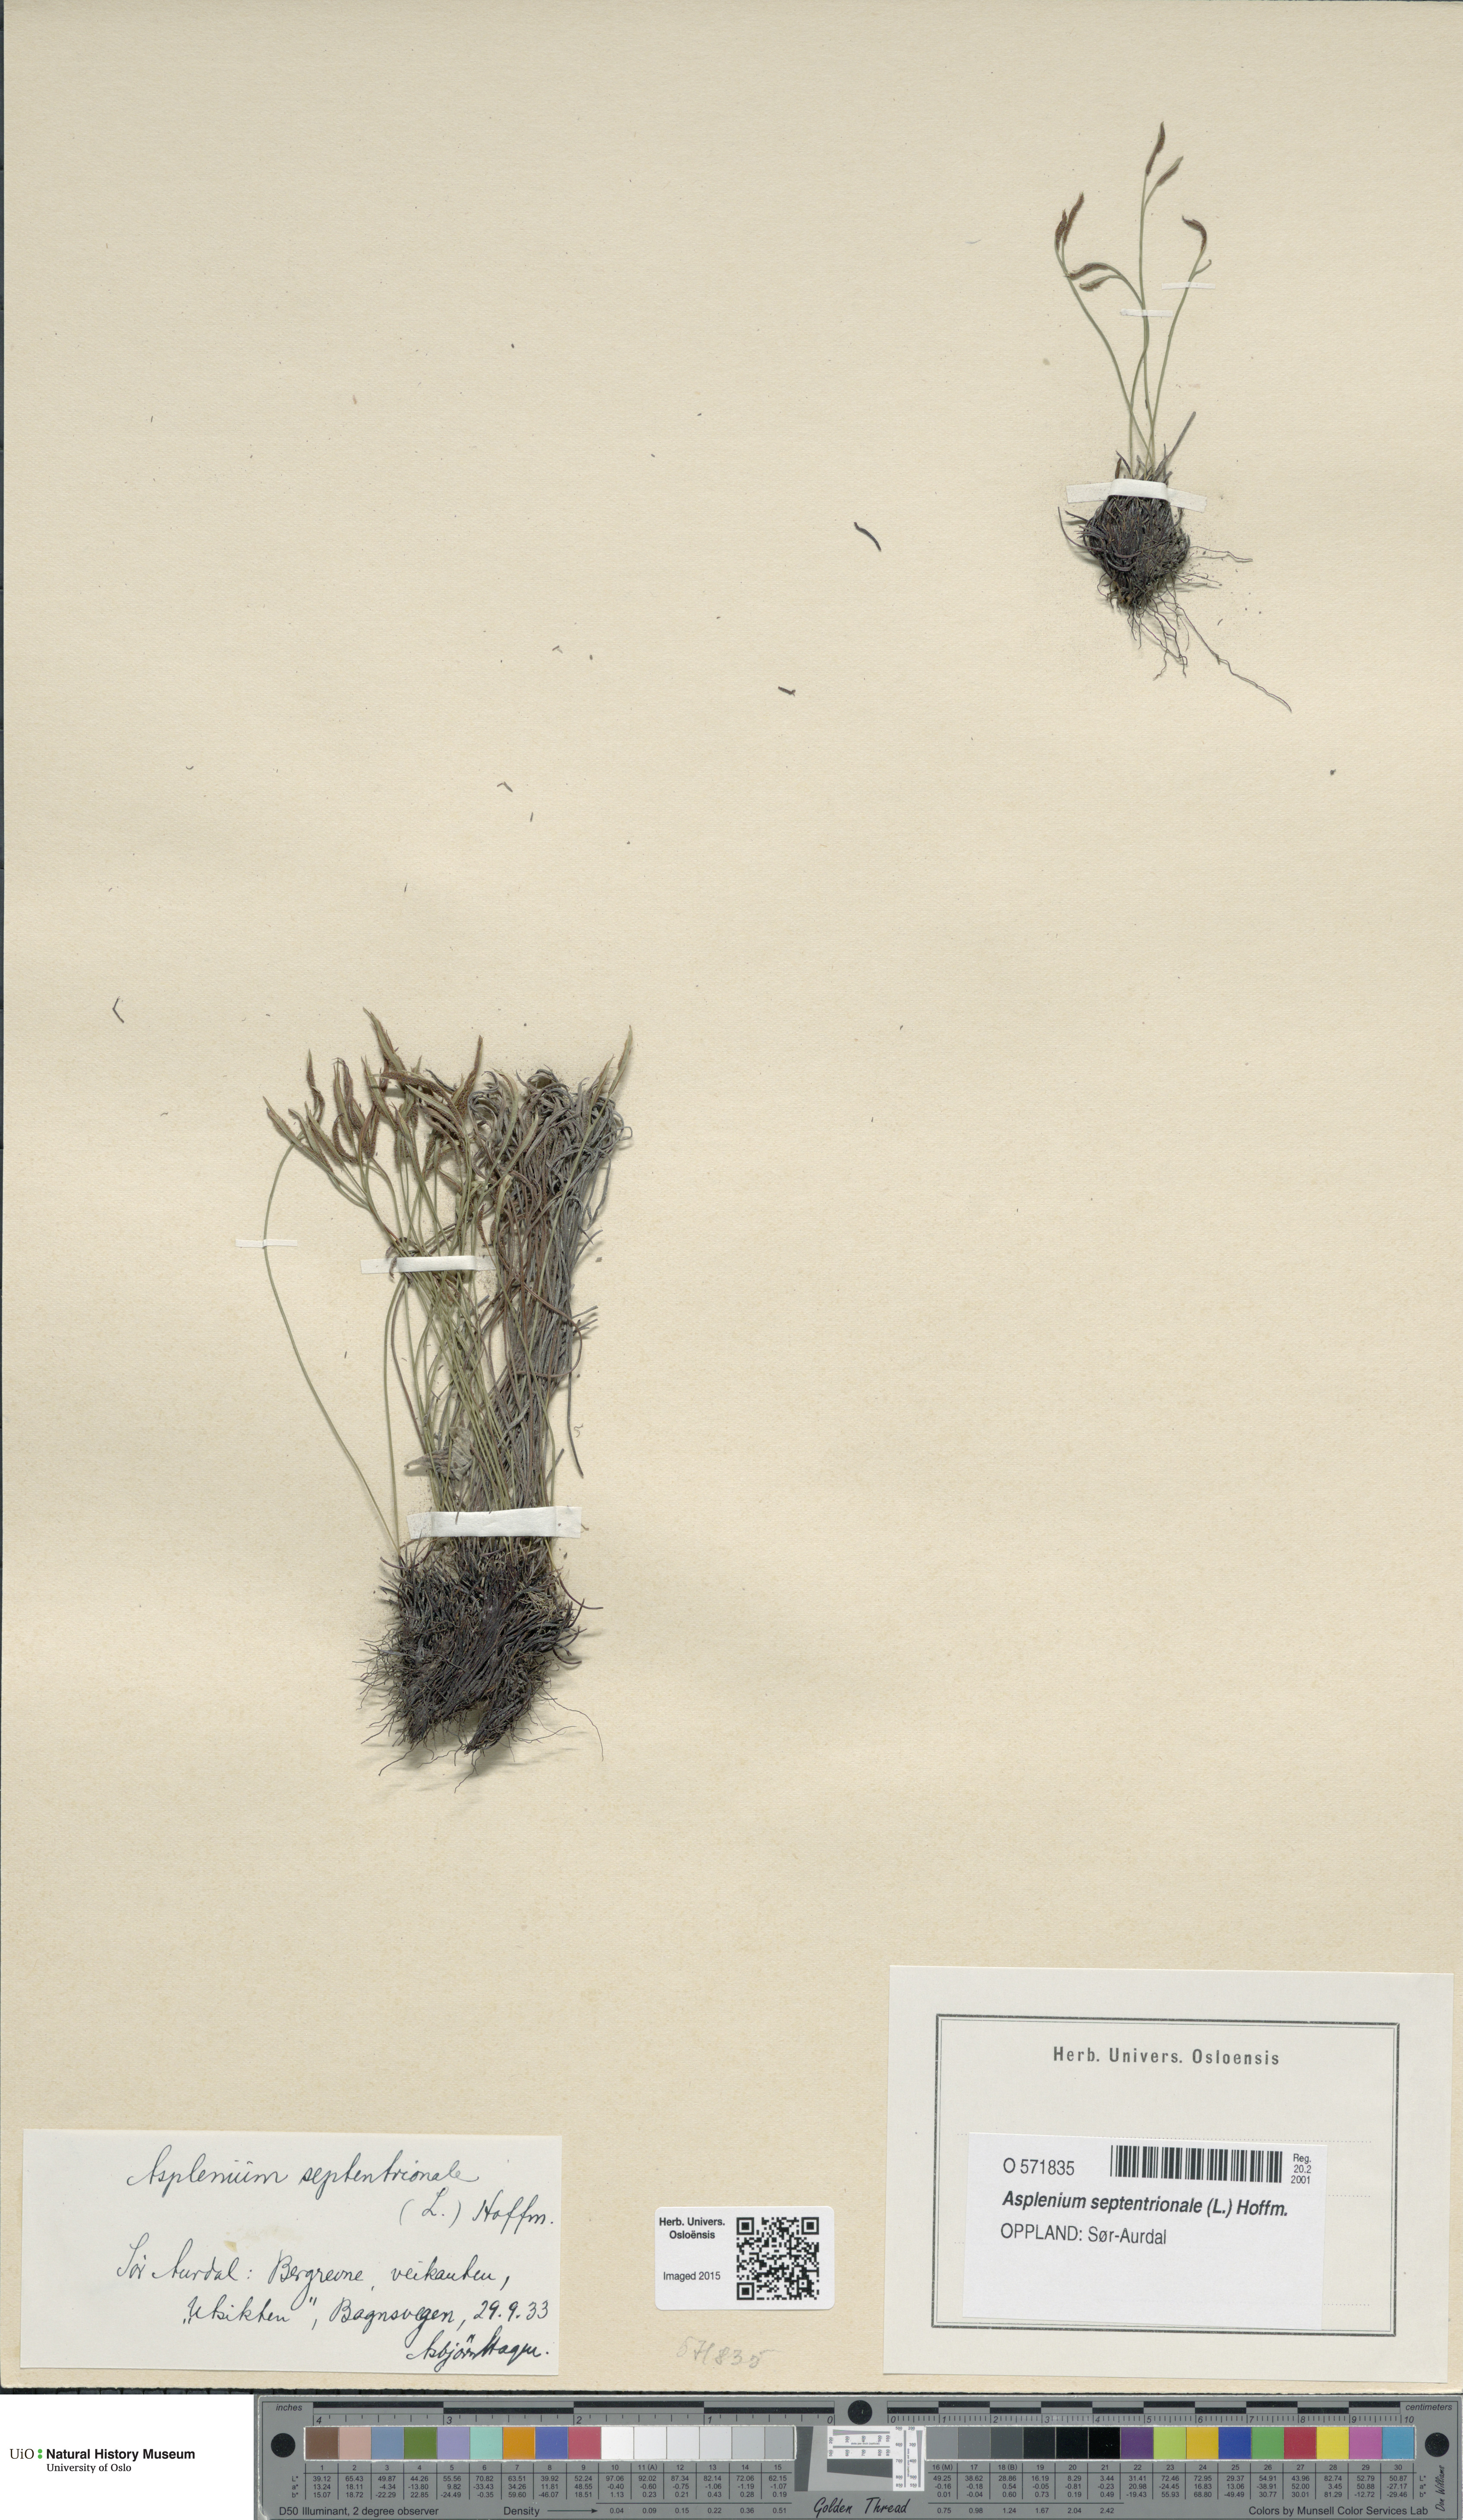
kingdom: Plantae
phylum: Tracheophyta
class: Polypodiopsida
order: Polypodiales
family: Aspleniaceae
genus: Asplenium
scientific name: Asplenium septentrionale
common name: Forked spleenwort
